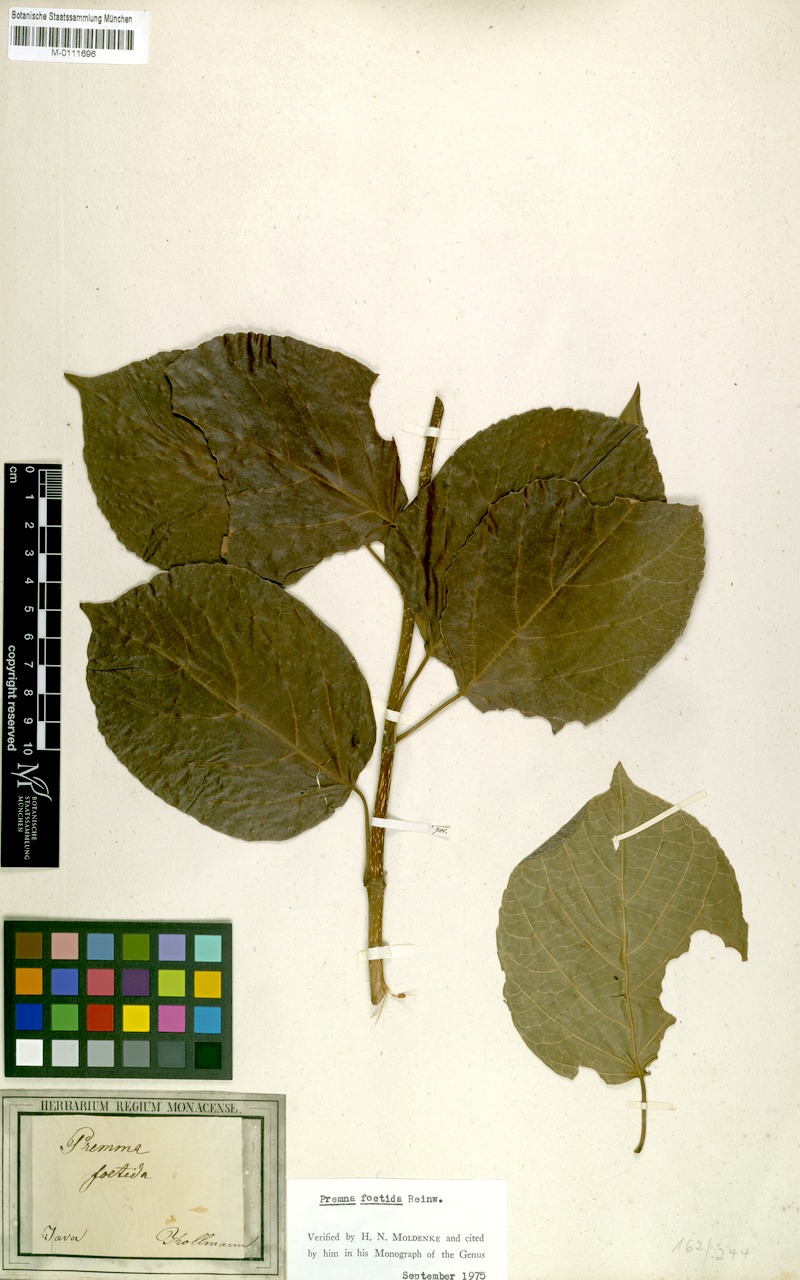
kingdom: Plantae
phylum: Tracheophyta
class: Magnoliopsida
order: Lamiales
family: Lamiaceae
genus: Premna
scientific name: Premna serratifolia
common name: Bastard guelder
